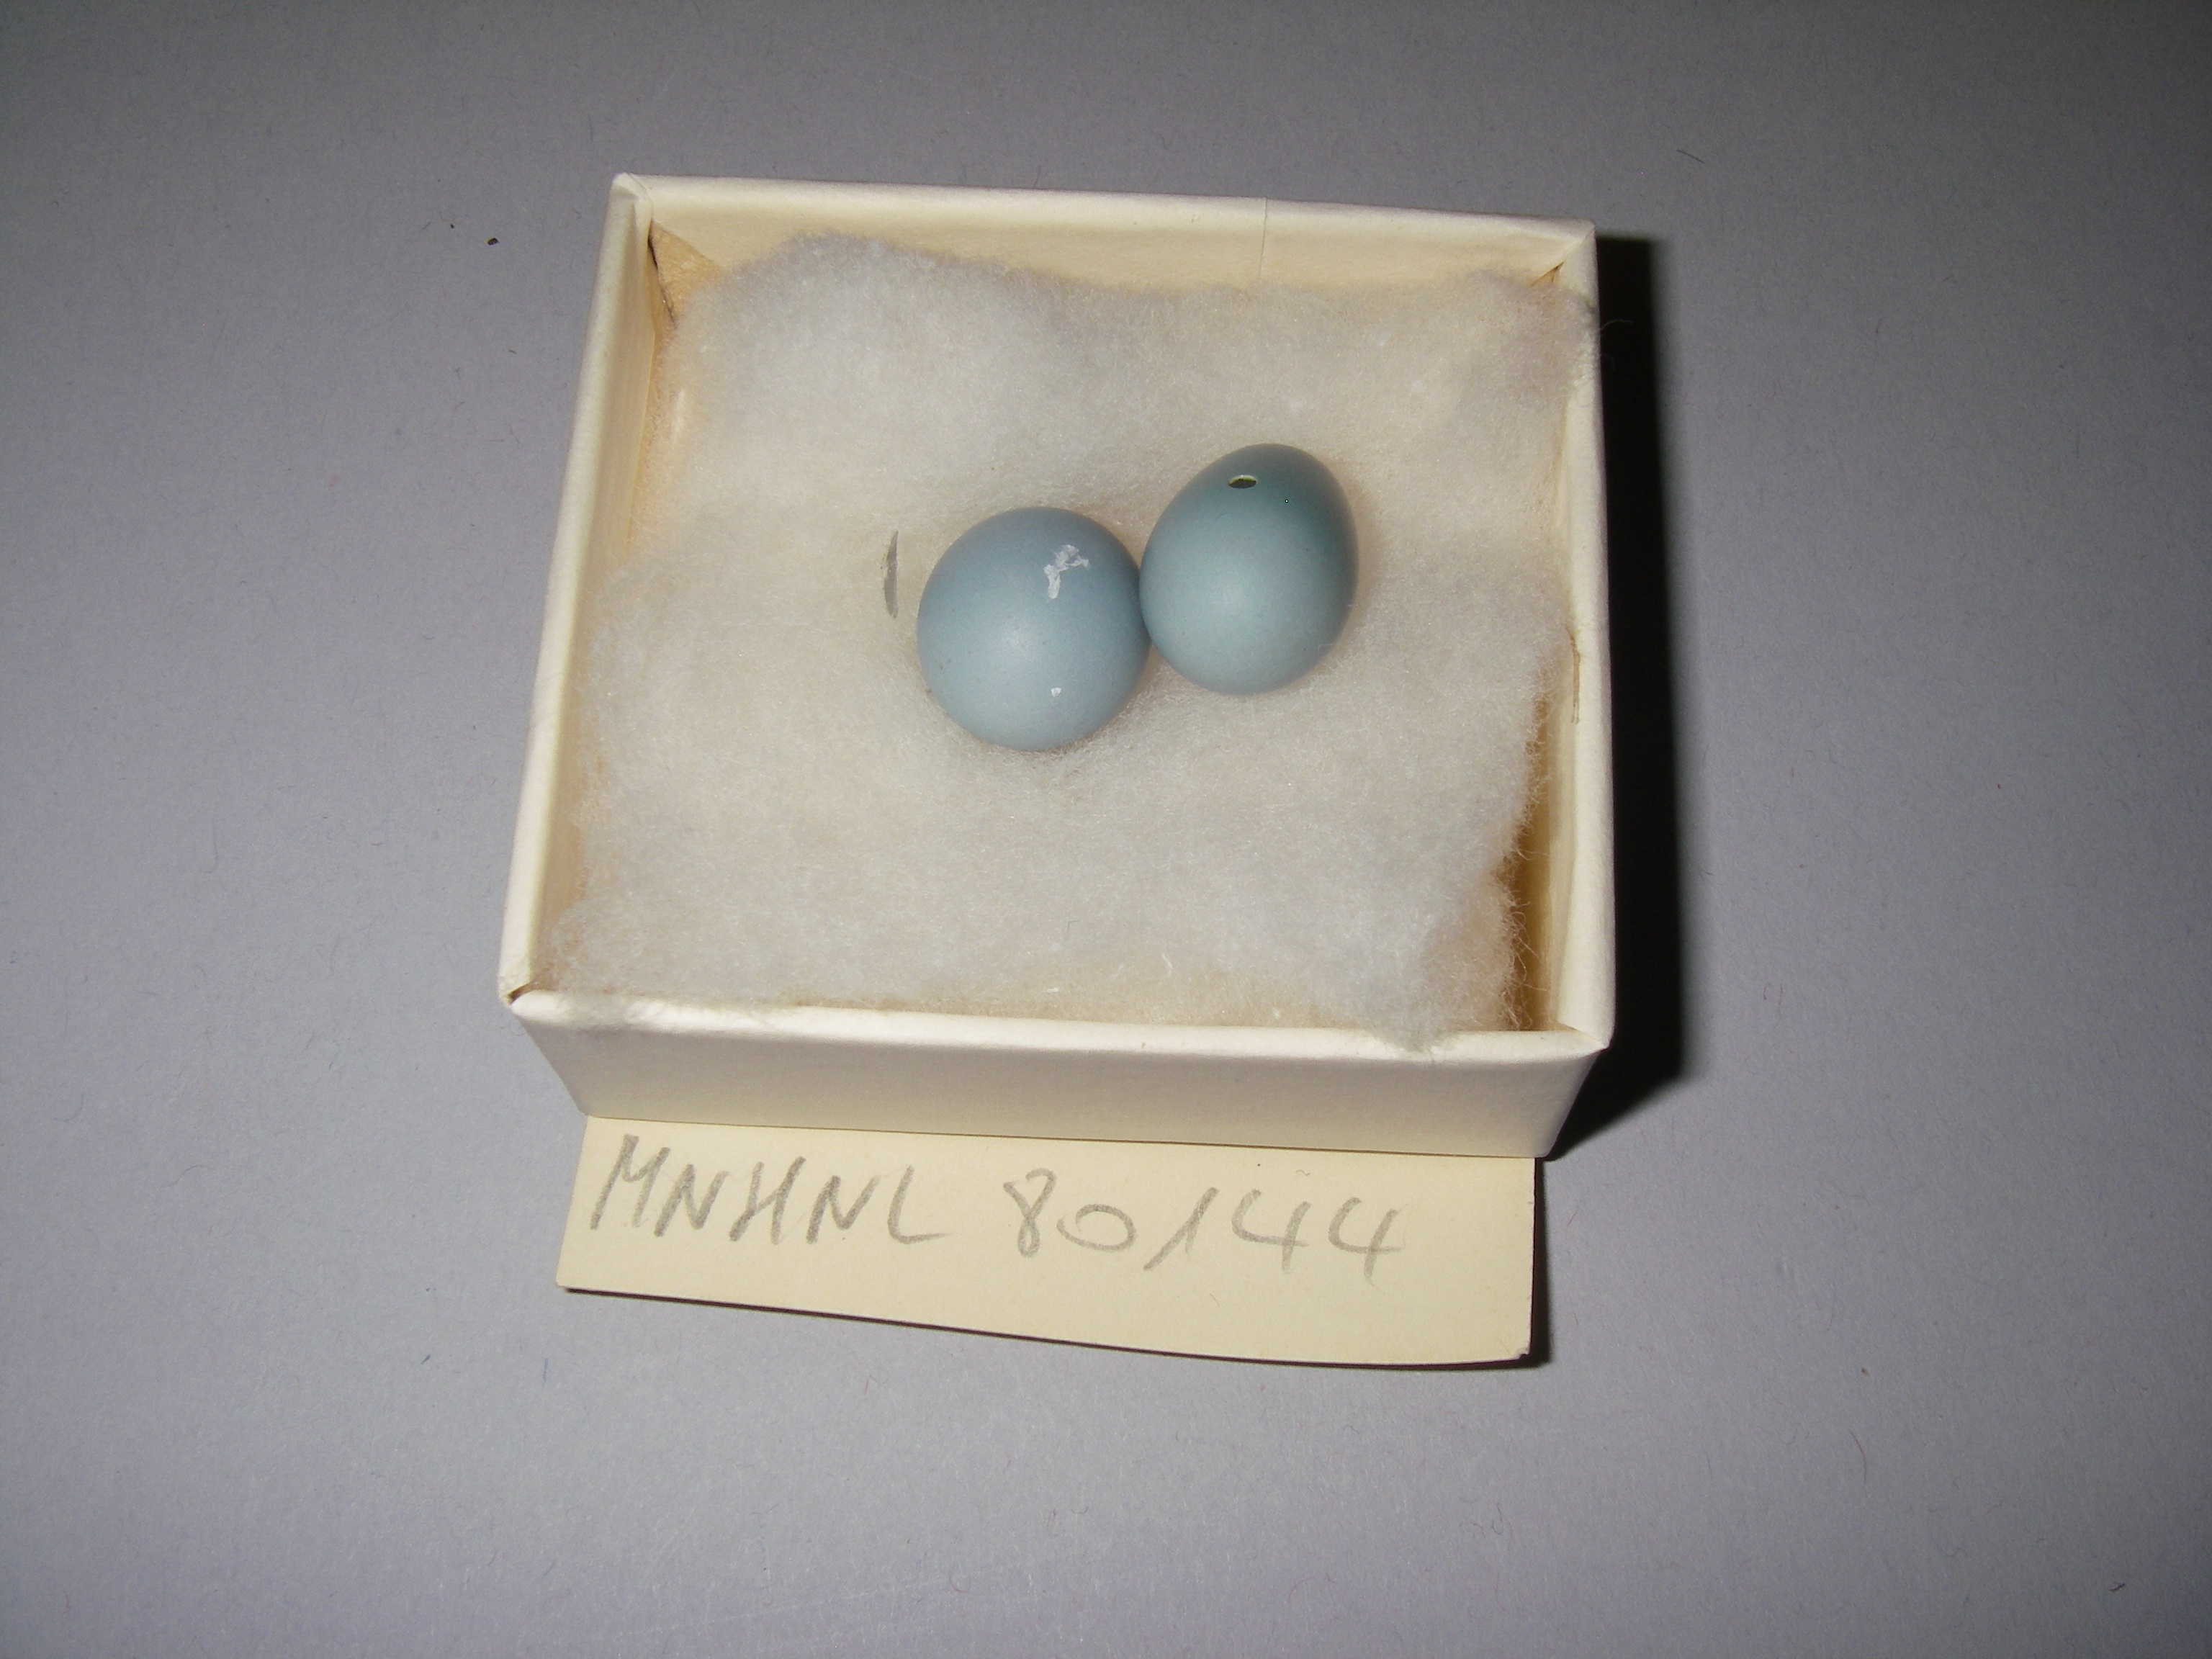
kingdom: Animalia
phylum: Chordata
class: Aves
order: Passeriformes
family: Prunellidae
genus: Prunella
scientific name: Prunella modularis
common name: Dunnock
